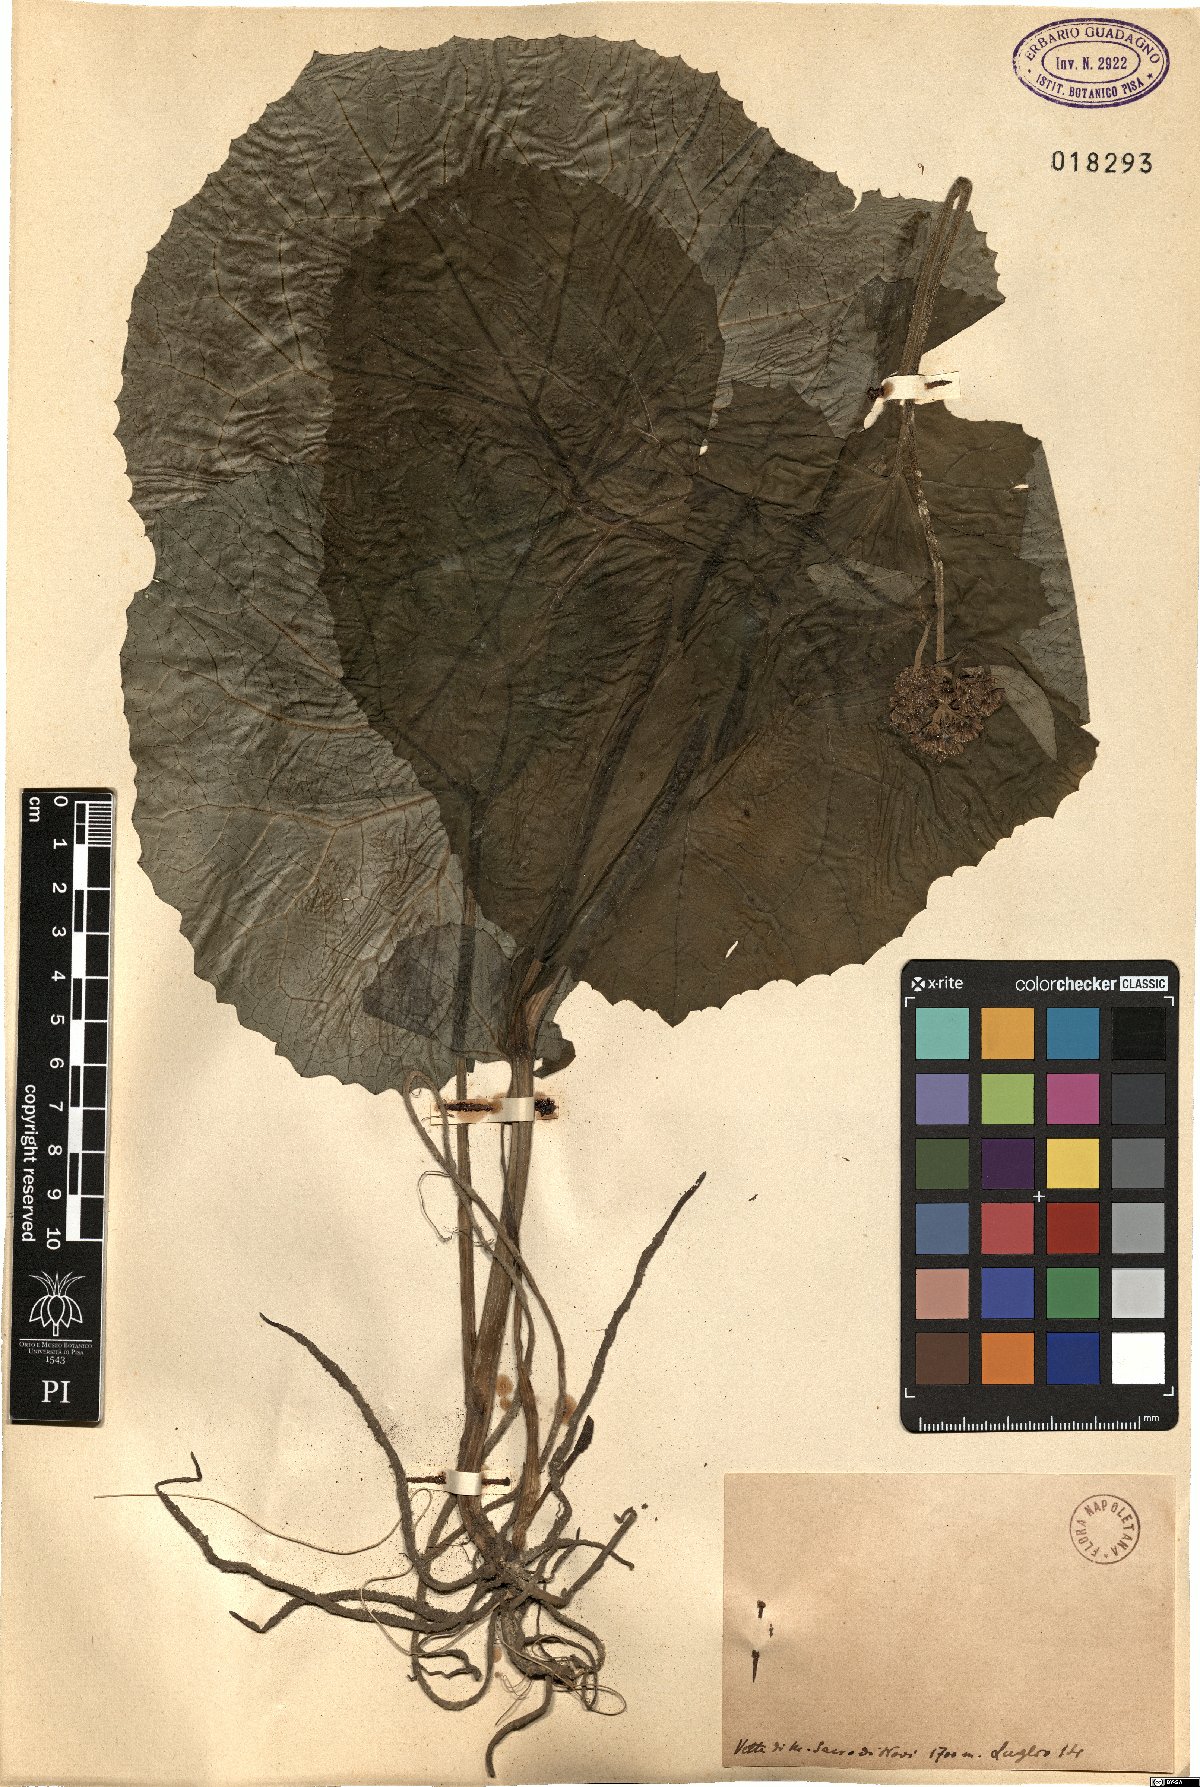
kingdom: Plantae
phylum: Tracheophyta
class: Magnoliopsida
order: Asterales
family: Asteraceae
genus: Adenostyles
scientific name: Adenostyles
